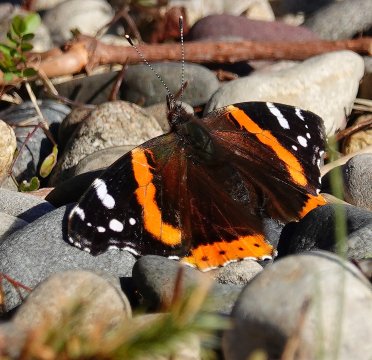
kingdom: Animalia
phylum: Arthropoda
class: Insecta
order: Lepidoptera
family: Nymphalidae
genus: Vanessa
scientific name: Vanessa atalanta
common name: Red Admiral
